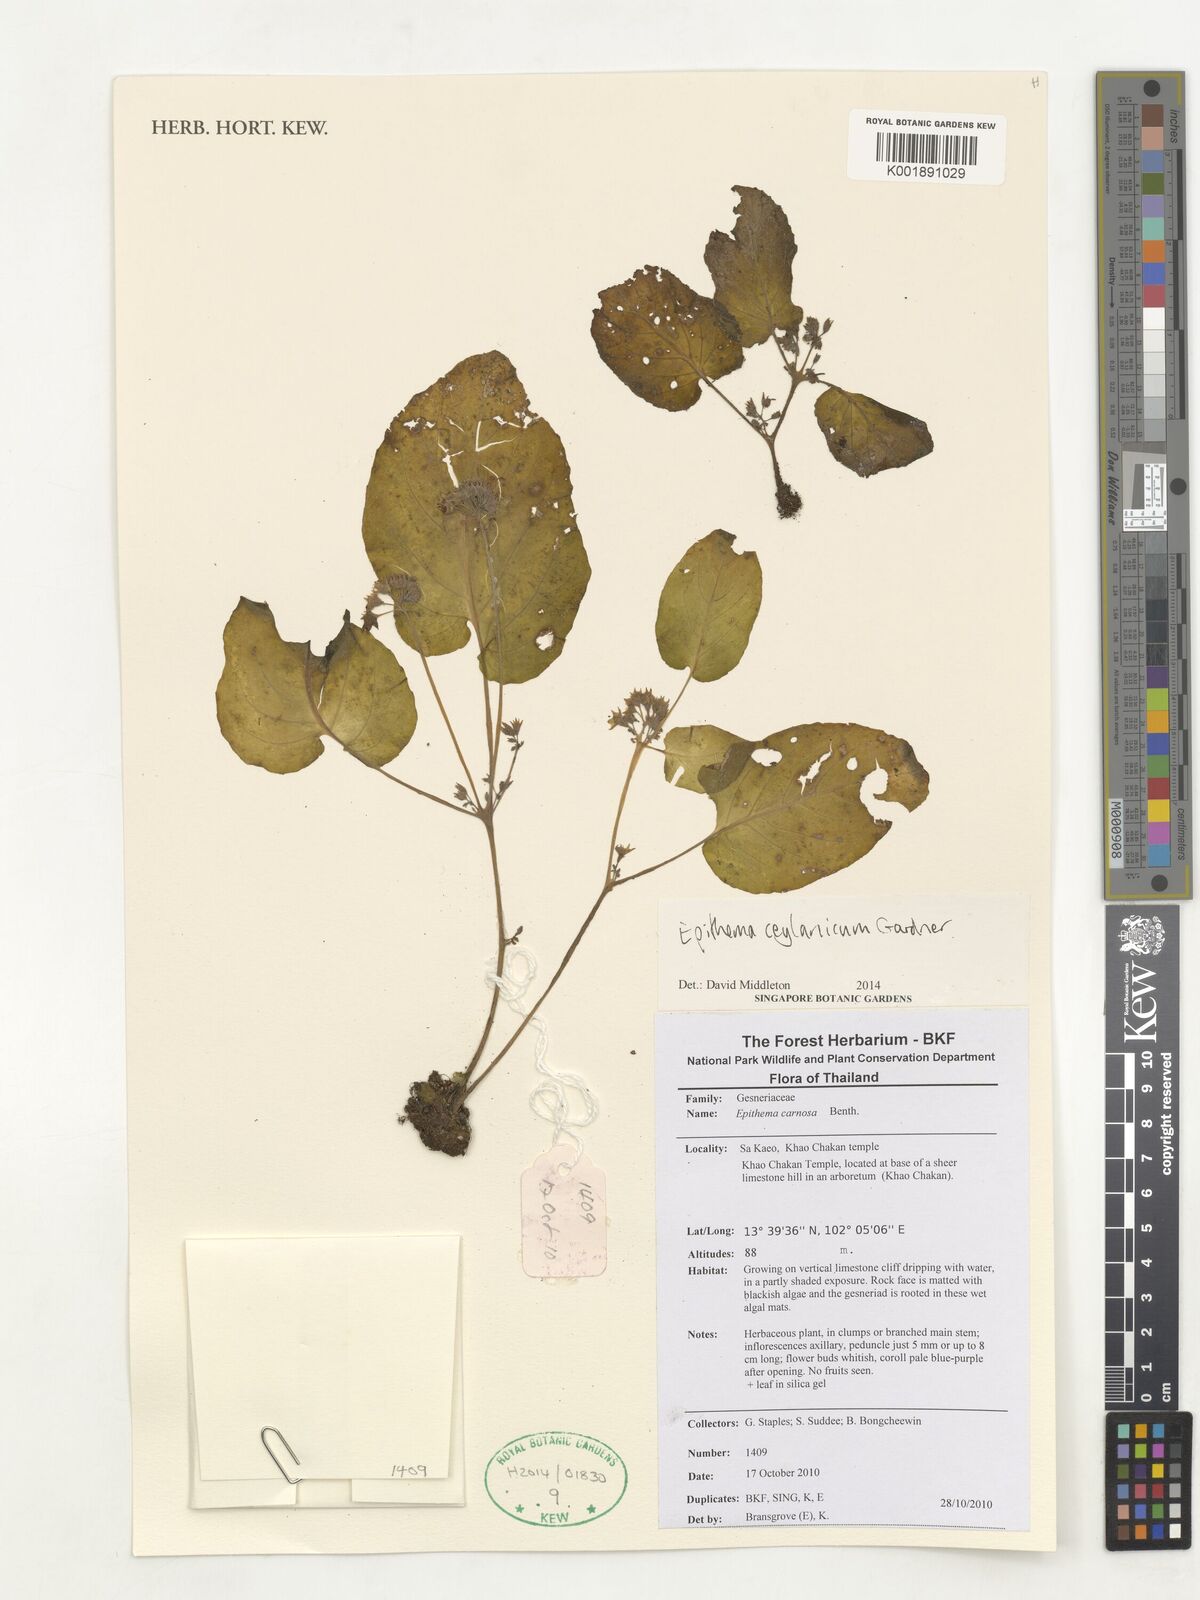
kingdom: Plantae
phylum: Tracheophyta
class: Magnoliopsida
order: Lamiales
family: Gesneriaceae
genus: Epithema
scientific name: Epithema ceylanicum
